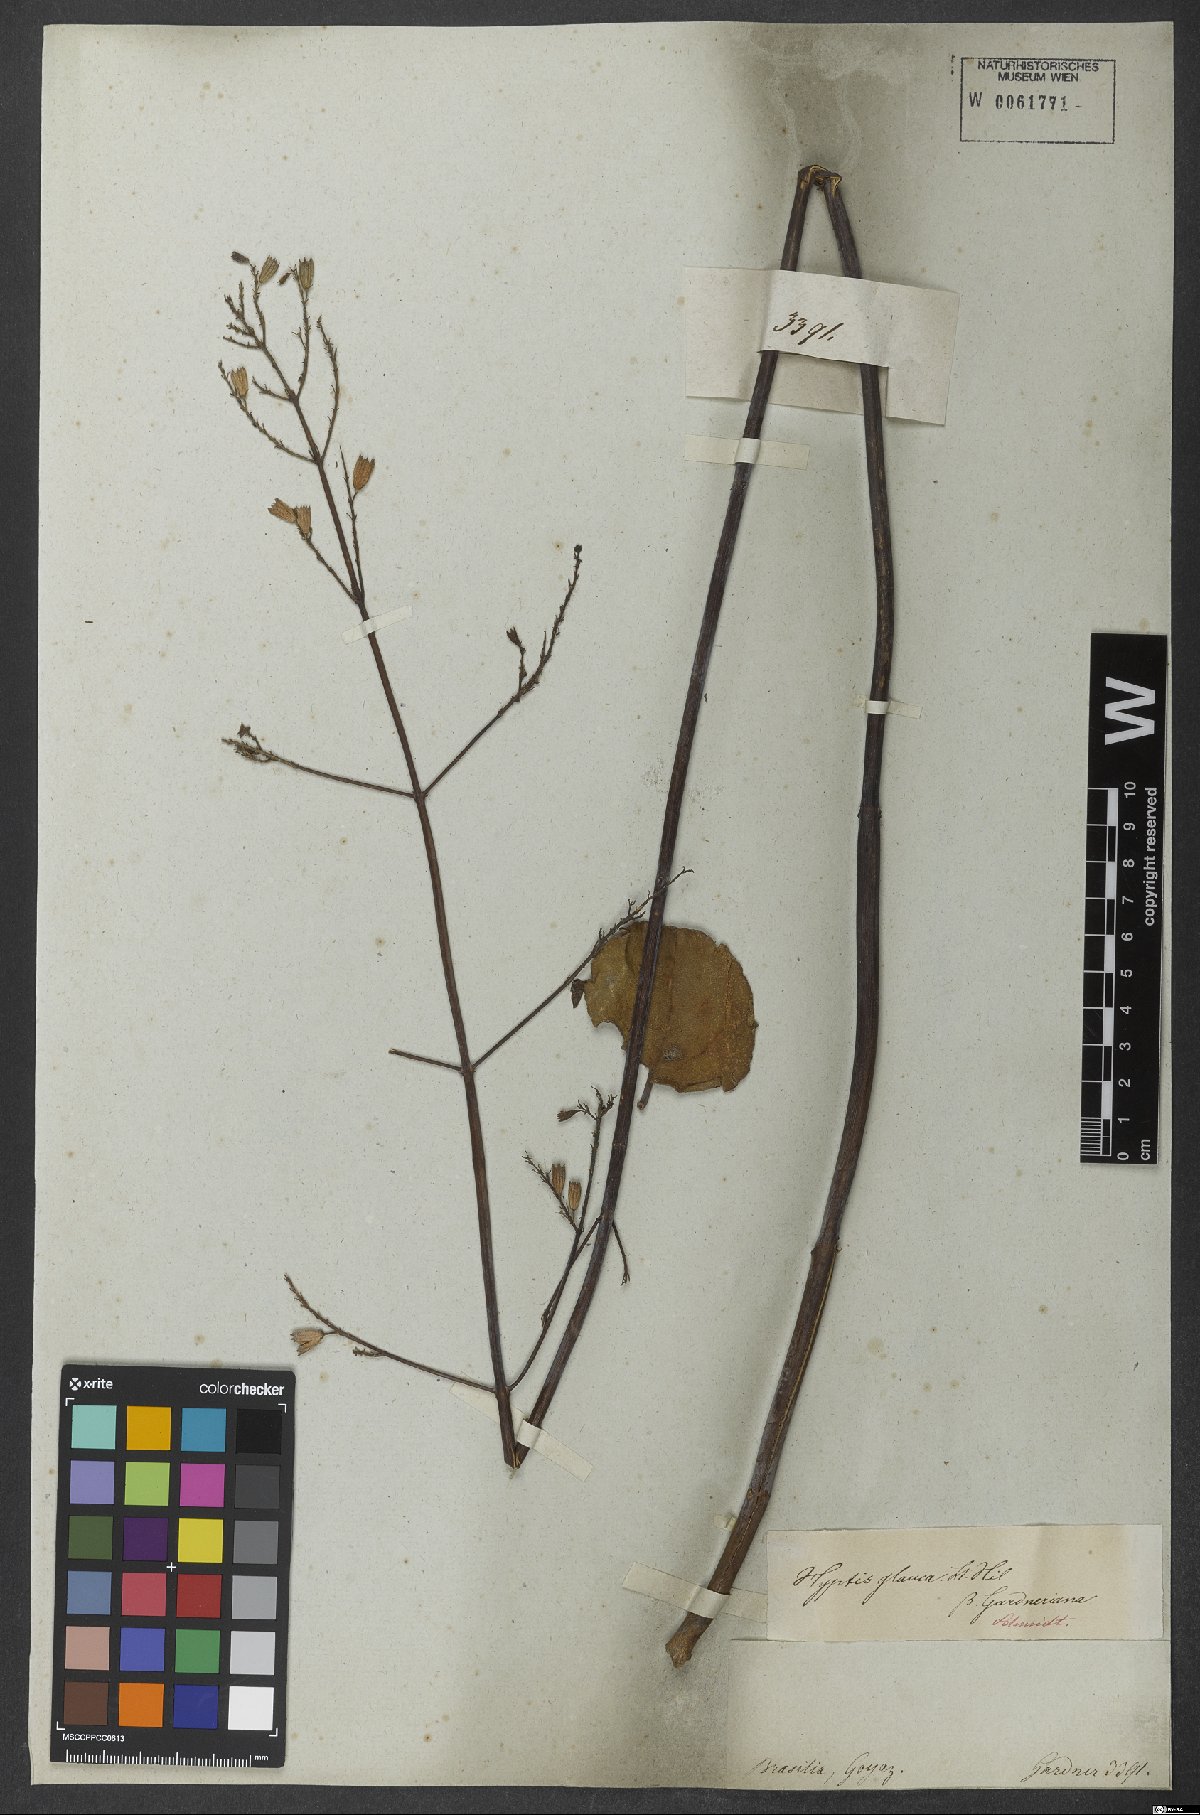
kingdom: Plantae
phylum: Tracheophyta
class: Magnoliopsida
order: Lamiales
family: Lamiaceae
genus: Hypenia
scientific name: Hypenia gardneriana
